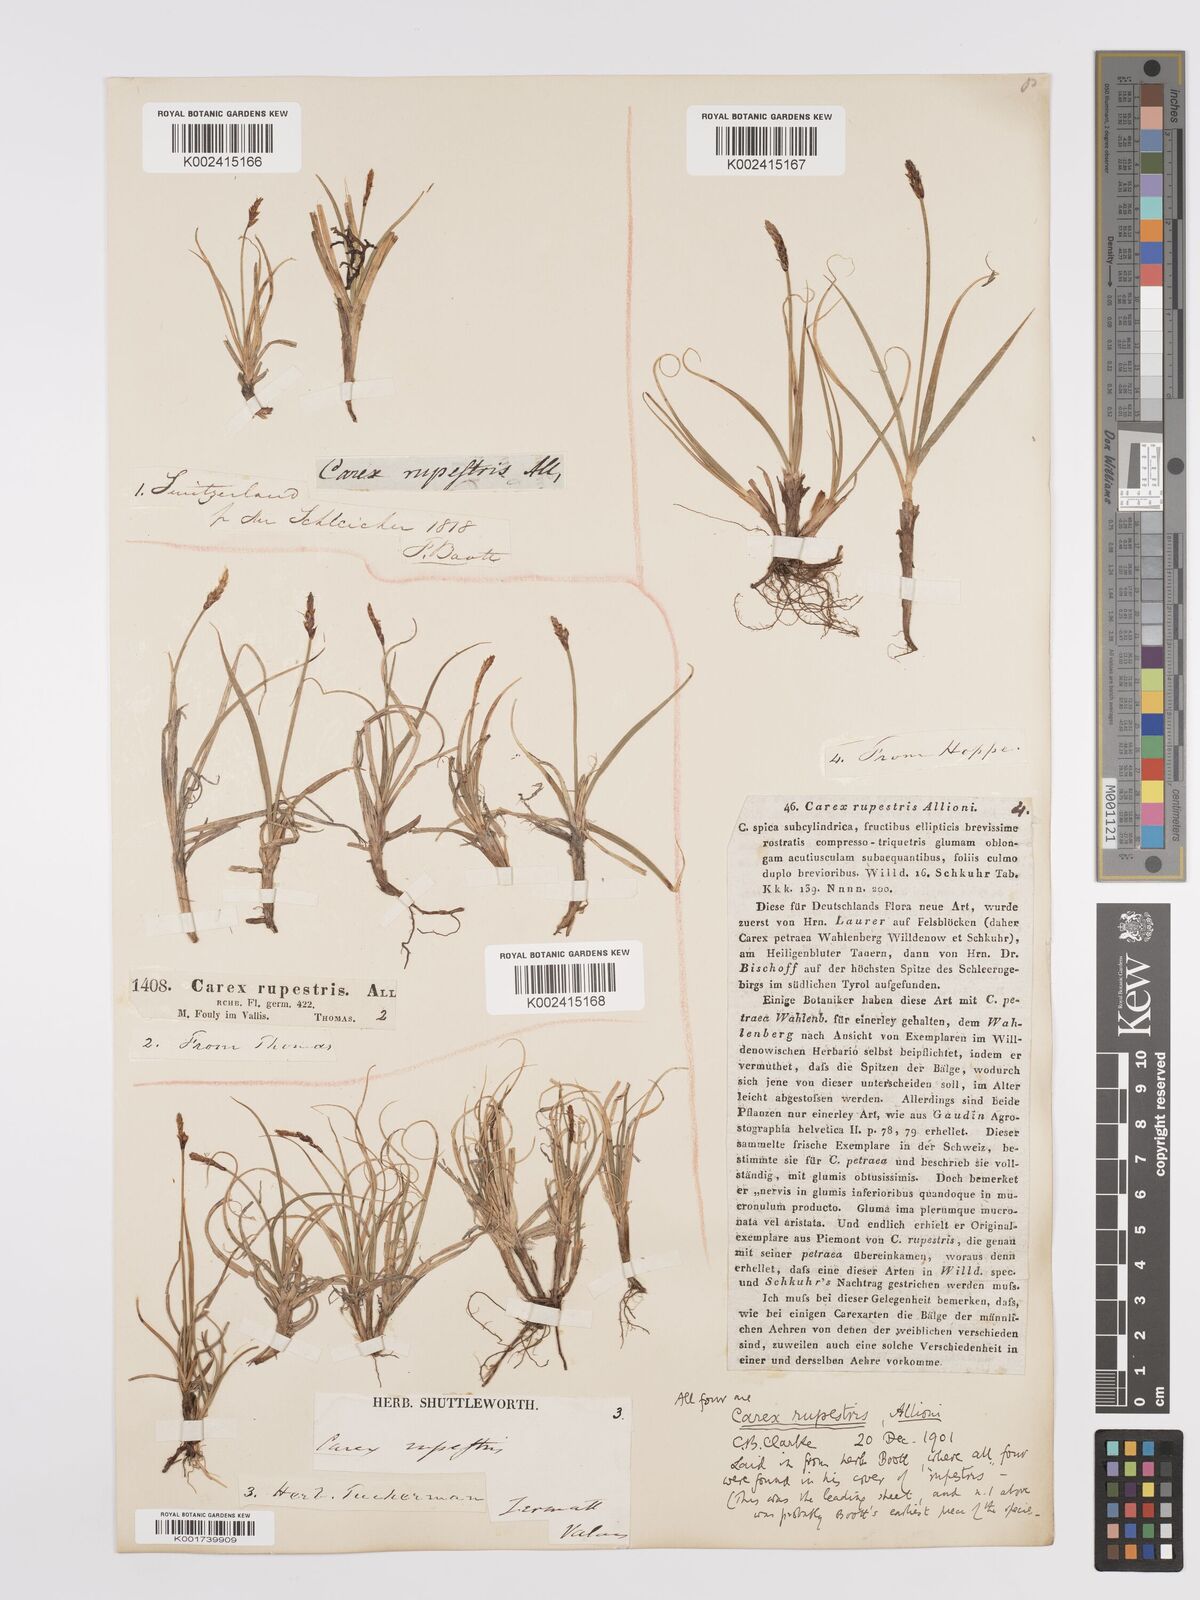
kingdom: Plantae
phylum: Tracheophyta
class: Liliopsida
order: Poales
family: Cyperaceae
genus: Carex
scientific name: Carex rupestris
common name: Rock sedge
